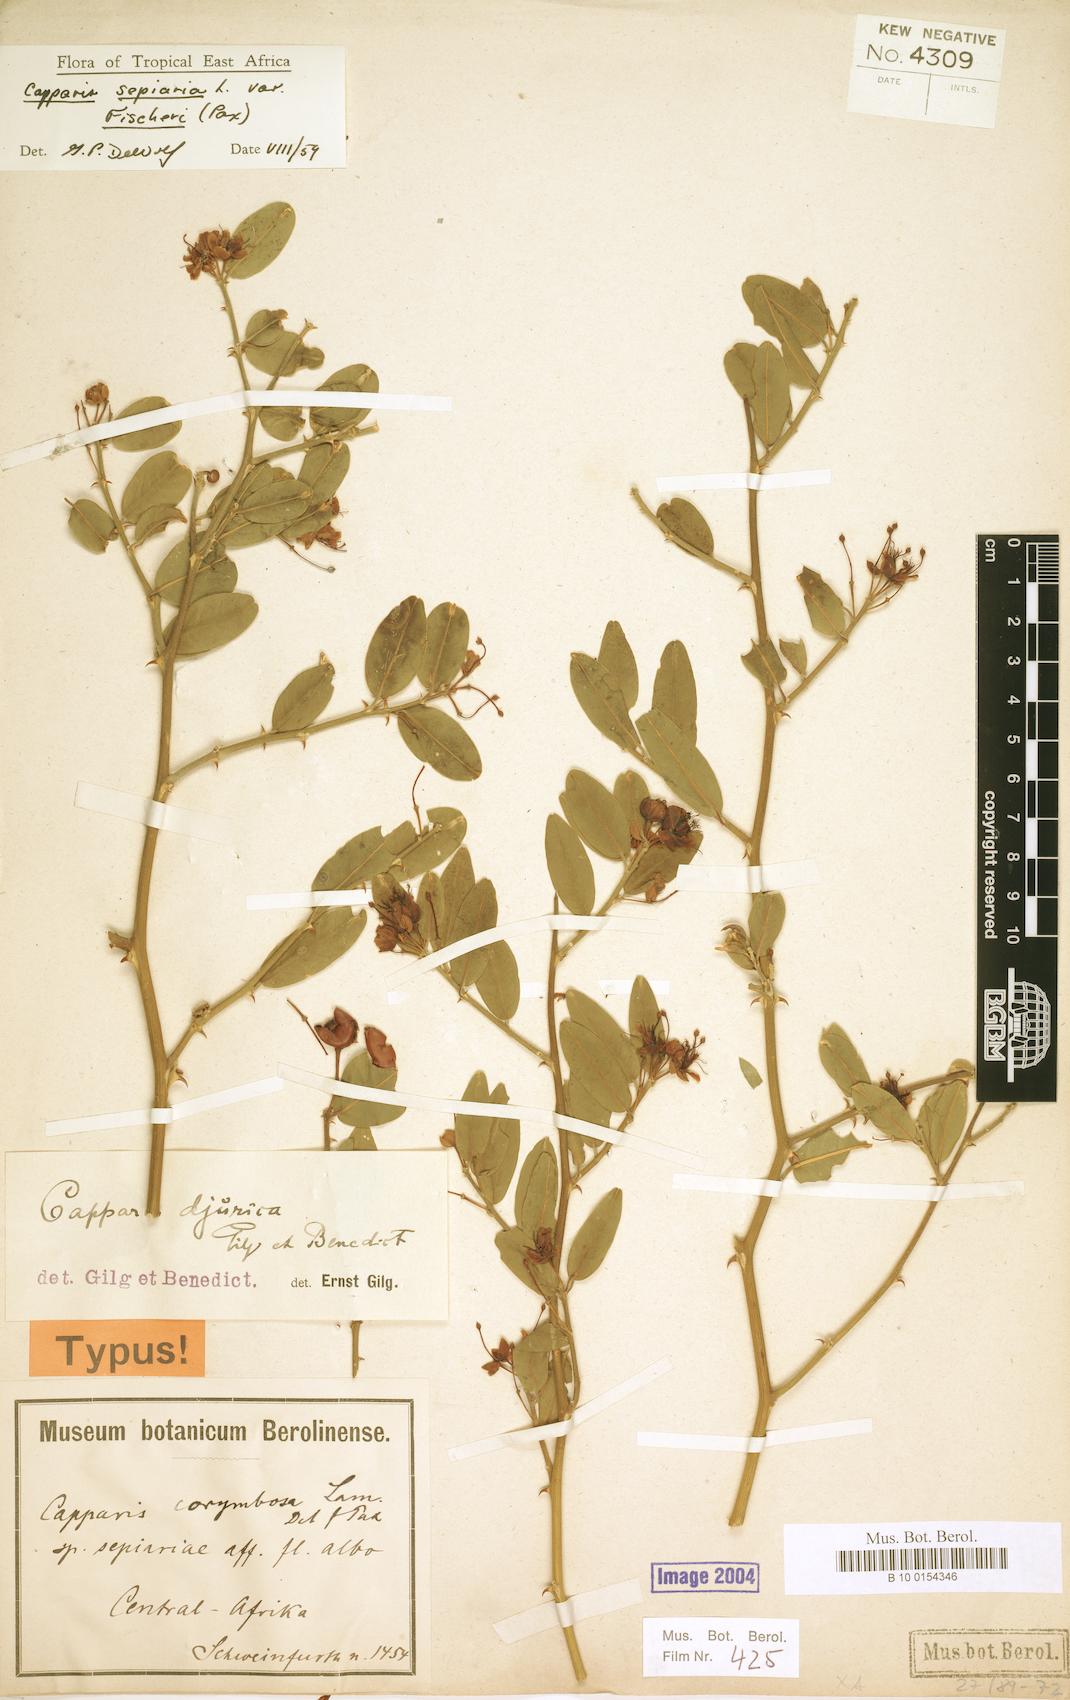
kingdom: Plantae
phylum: Tracheophyta
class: Magnoliopsida
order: Brassicales
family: Capparaceae
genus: Capparis
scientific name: Capparis sepiaria
